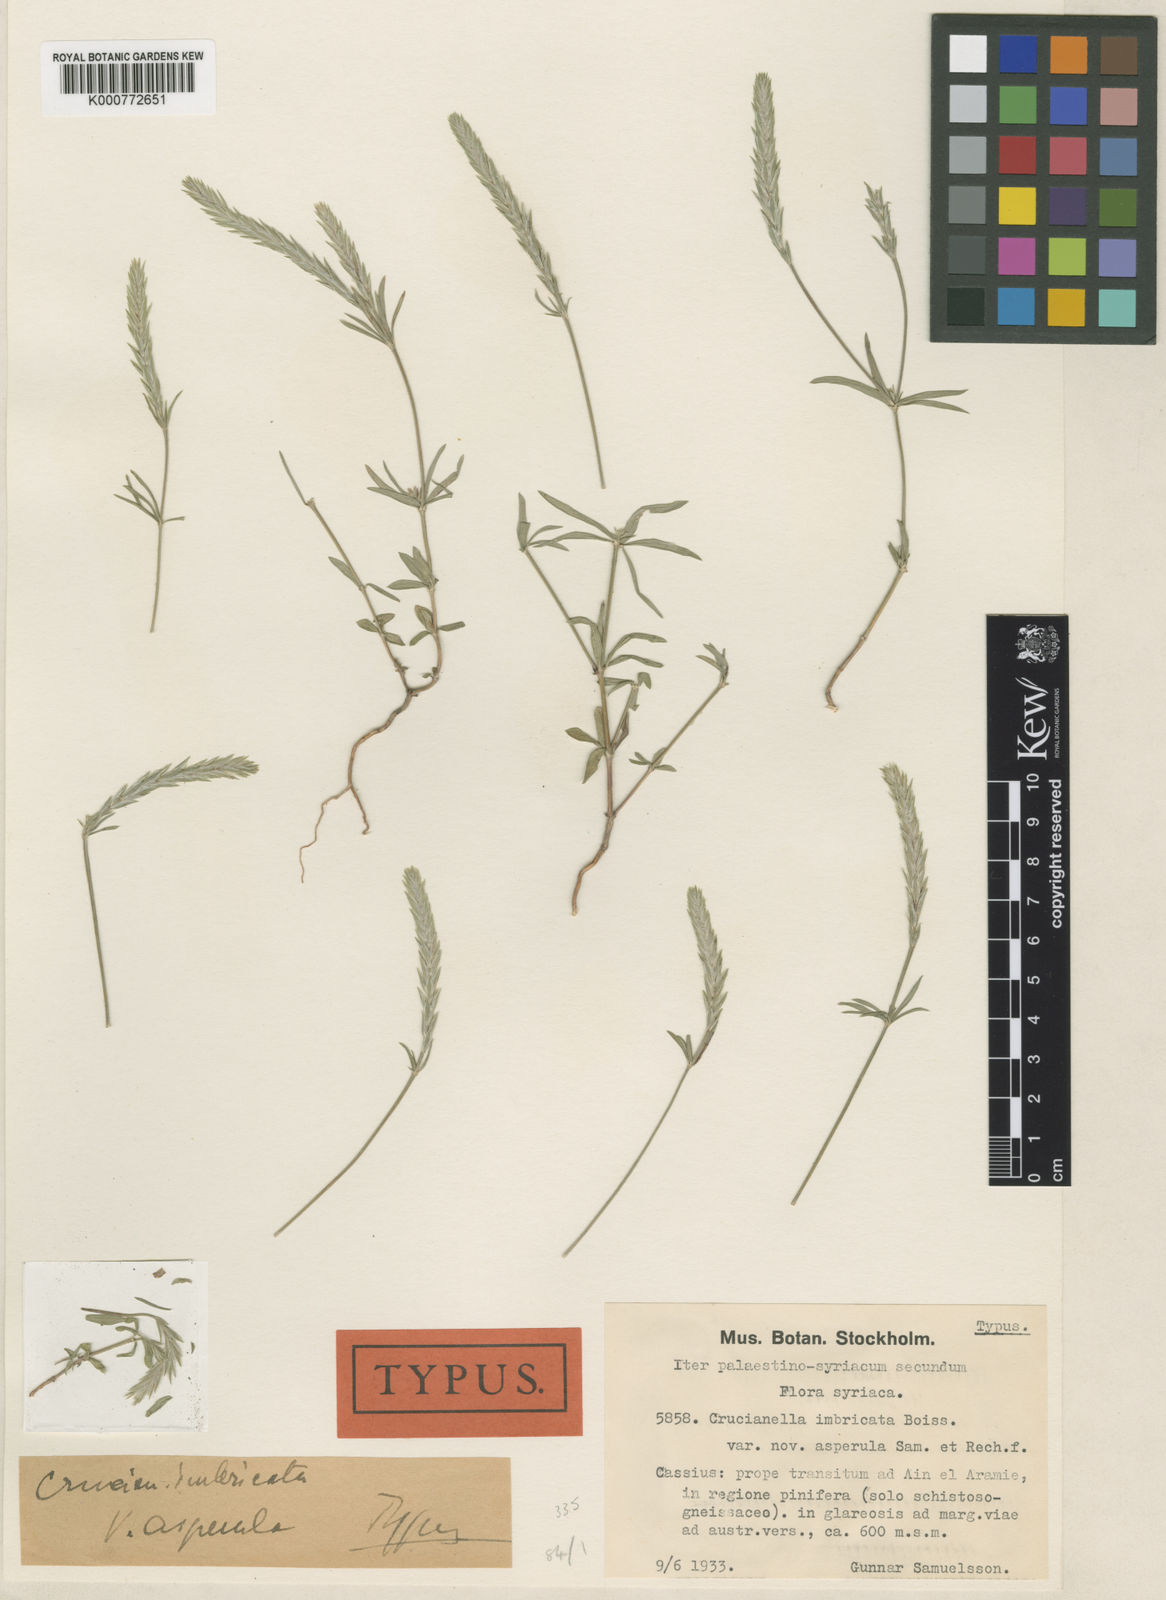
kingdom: Plantae
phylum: Tracheophyta
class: Magnoliopsida
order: Gentianales
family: Rubiaceae
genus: Crucianella
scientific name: Crucianella imbricata
